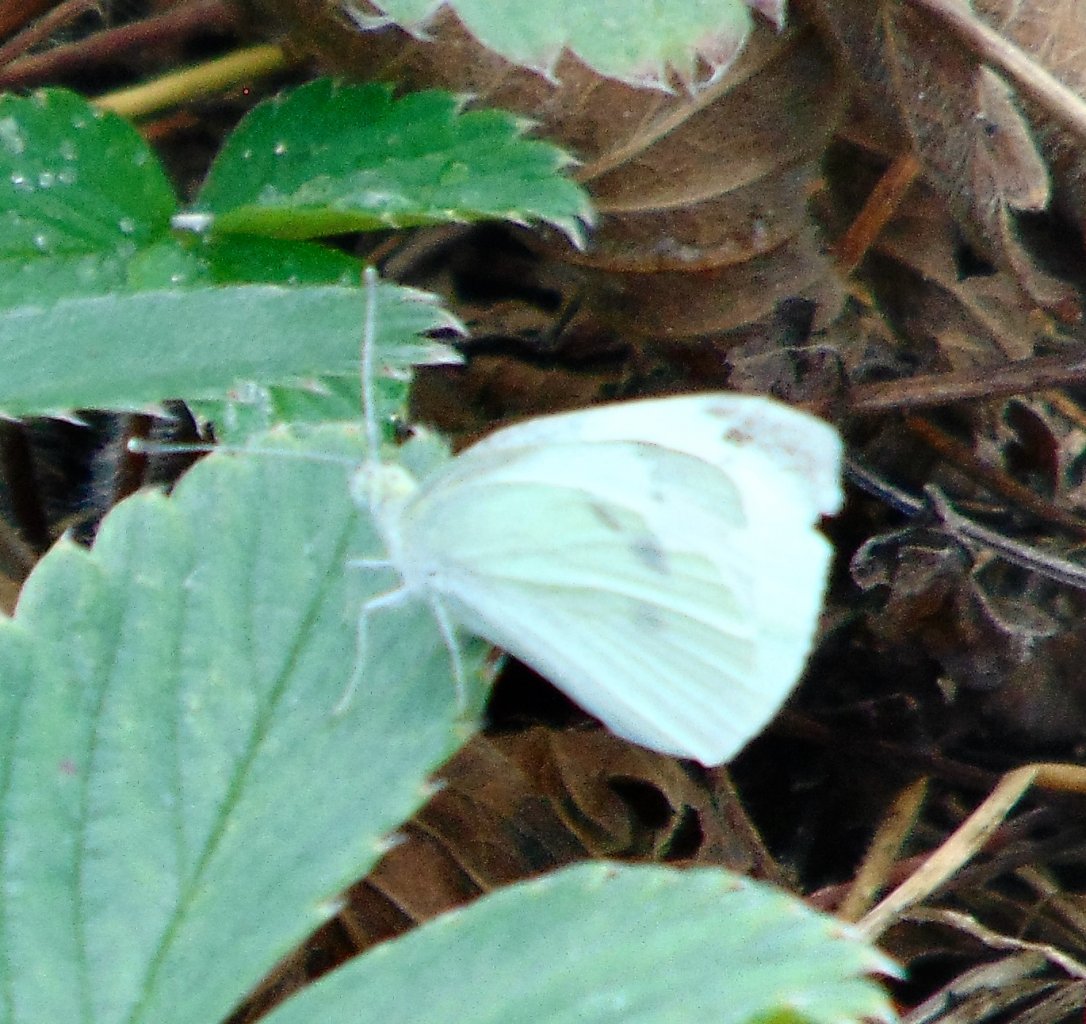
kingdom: Animalia
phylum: Arthropoda
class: Insecta
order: Lepidoptera
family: Pieridae
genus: Pieris
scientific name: Pieris rapae
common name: Cabbage White
